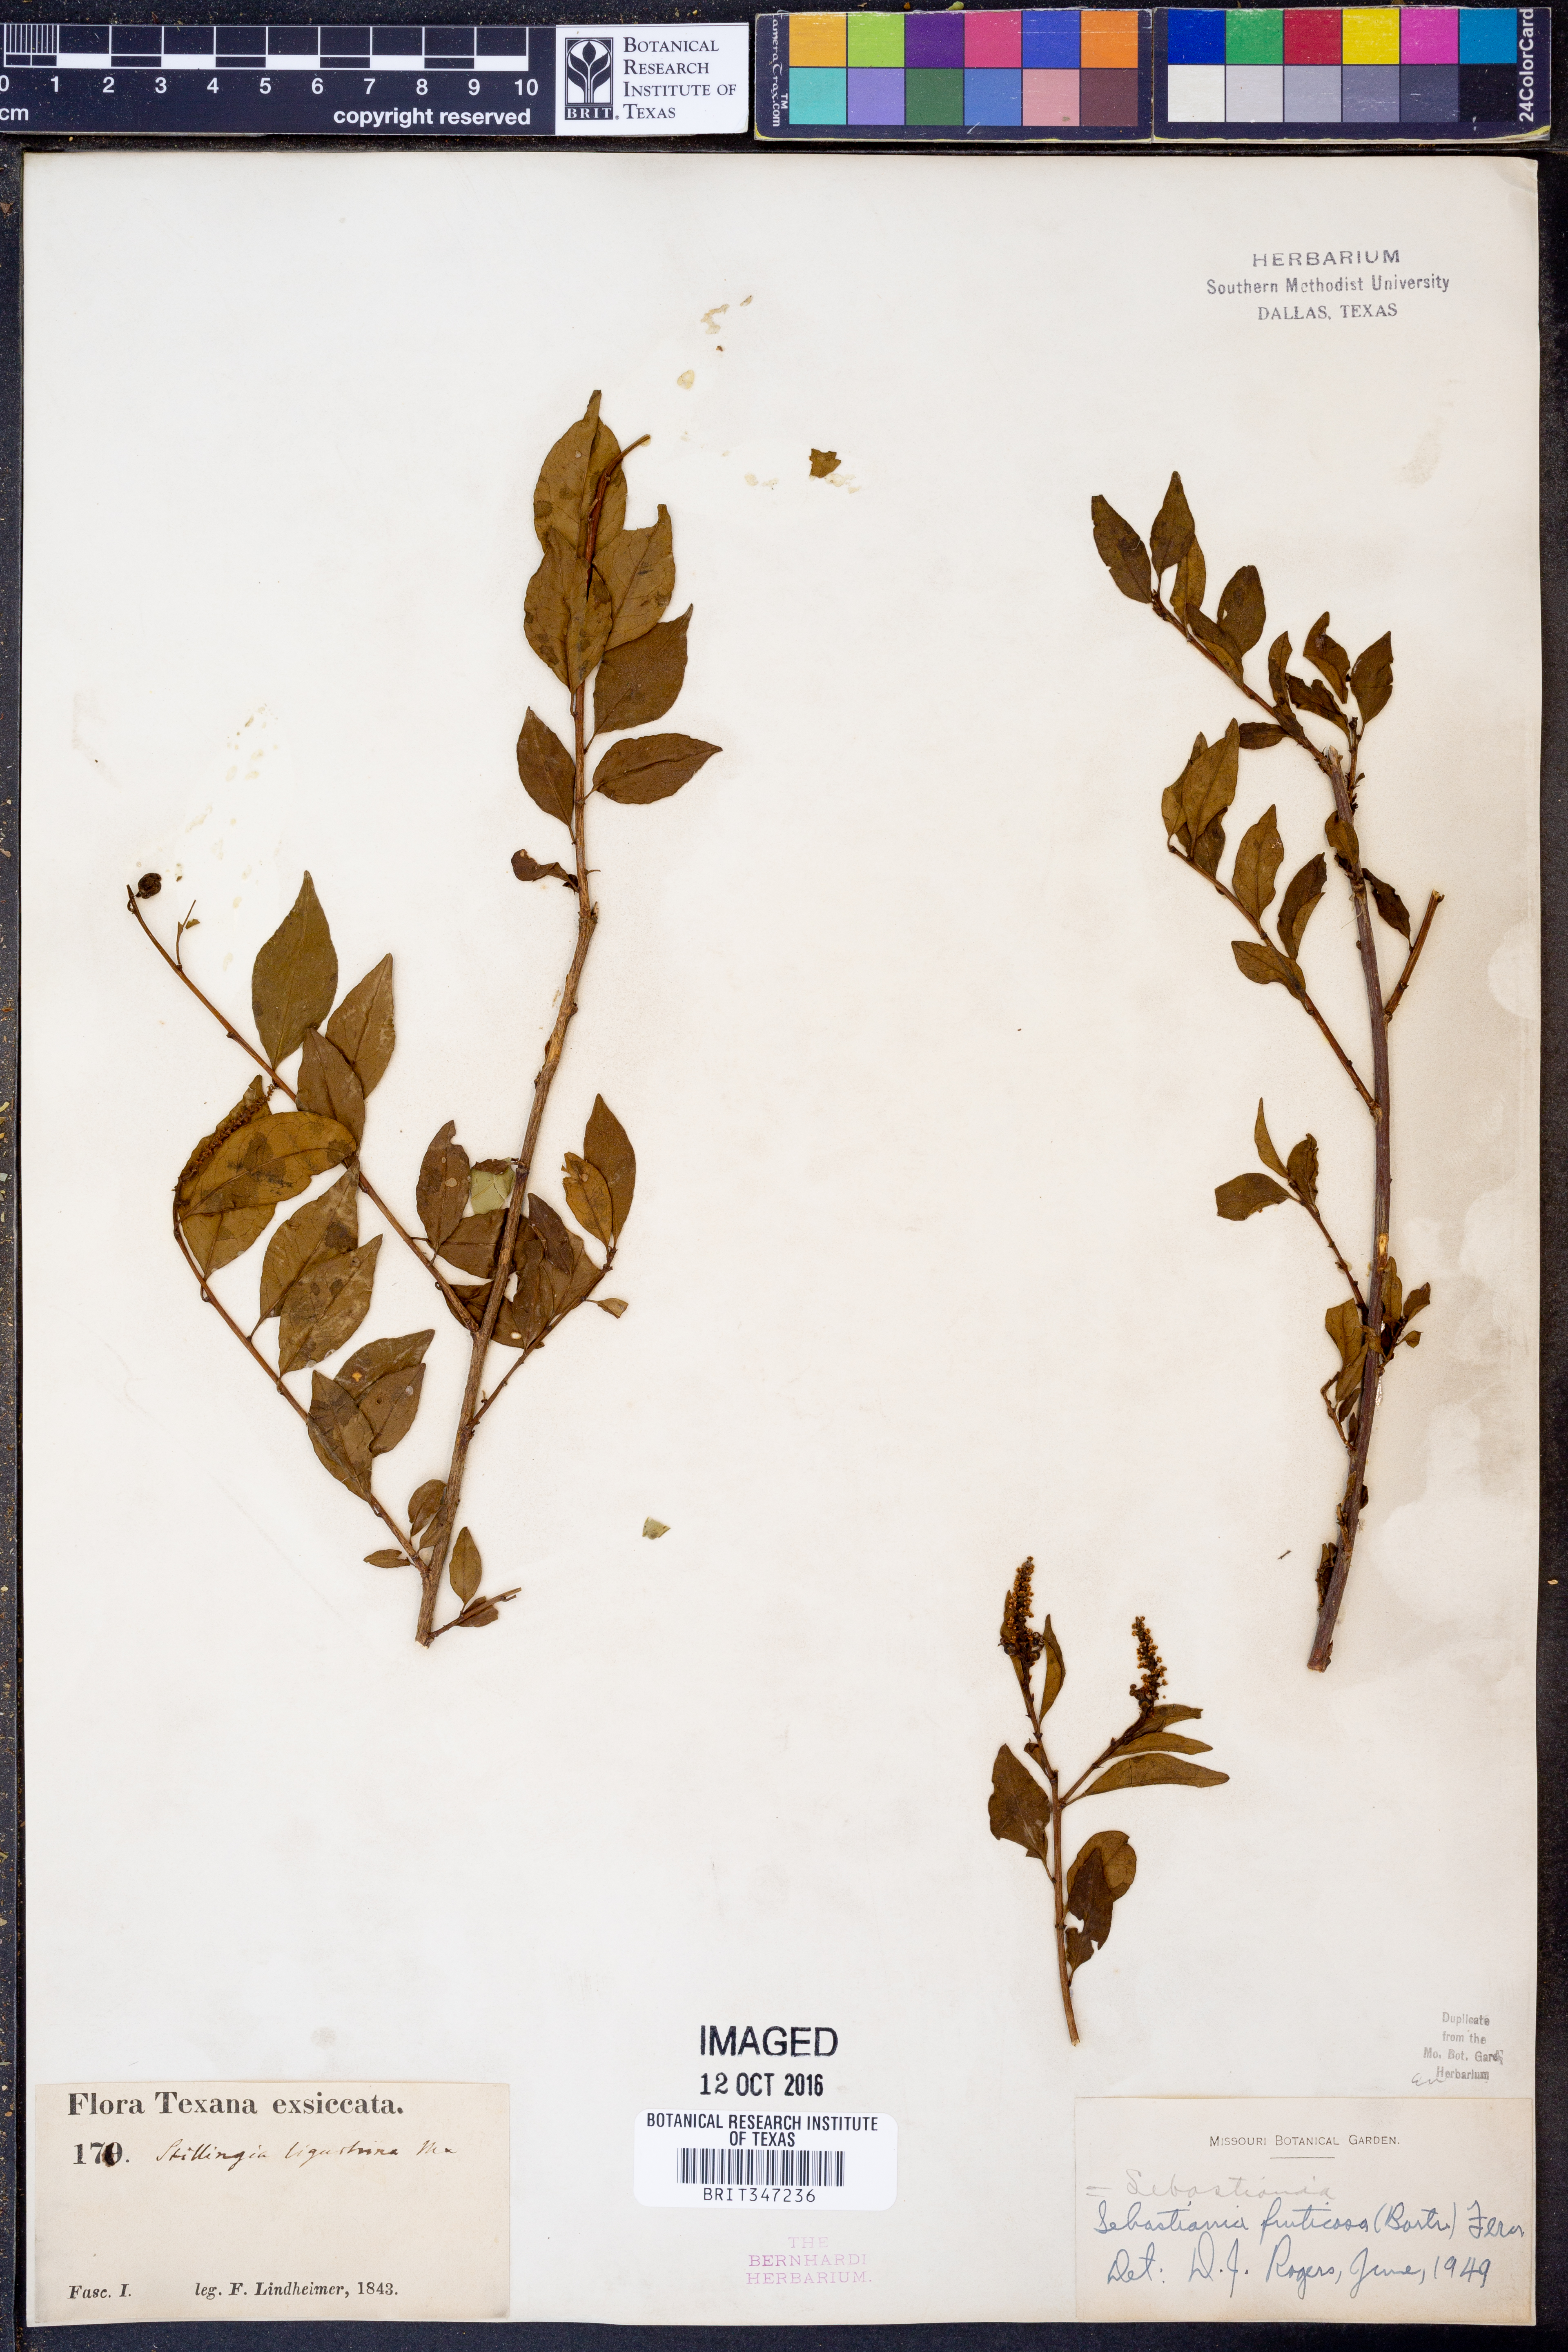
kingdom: Plantae
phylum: Tracheophyta
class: Magnoliopsida
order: Malpighiales
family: Euphorbiaceae
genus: Ditrysinia
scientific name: Ditrysinia fruticosa
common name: Gulf sebastian-bush
